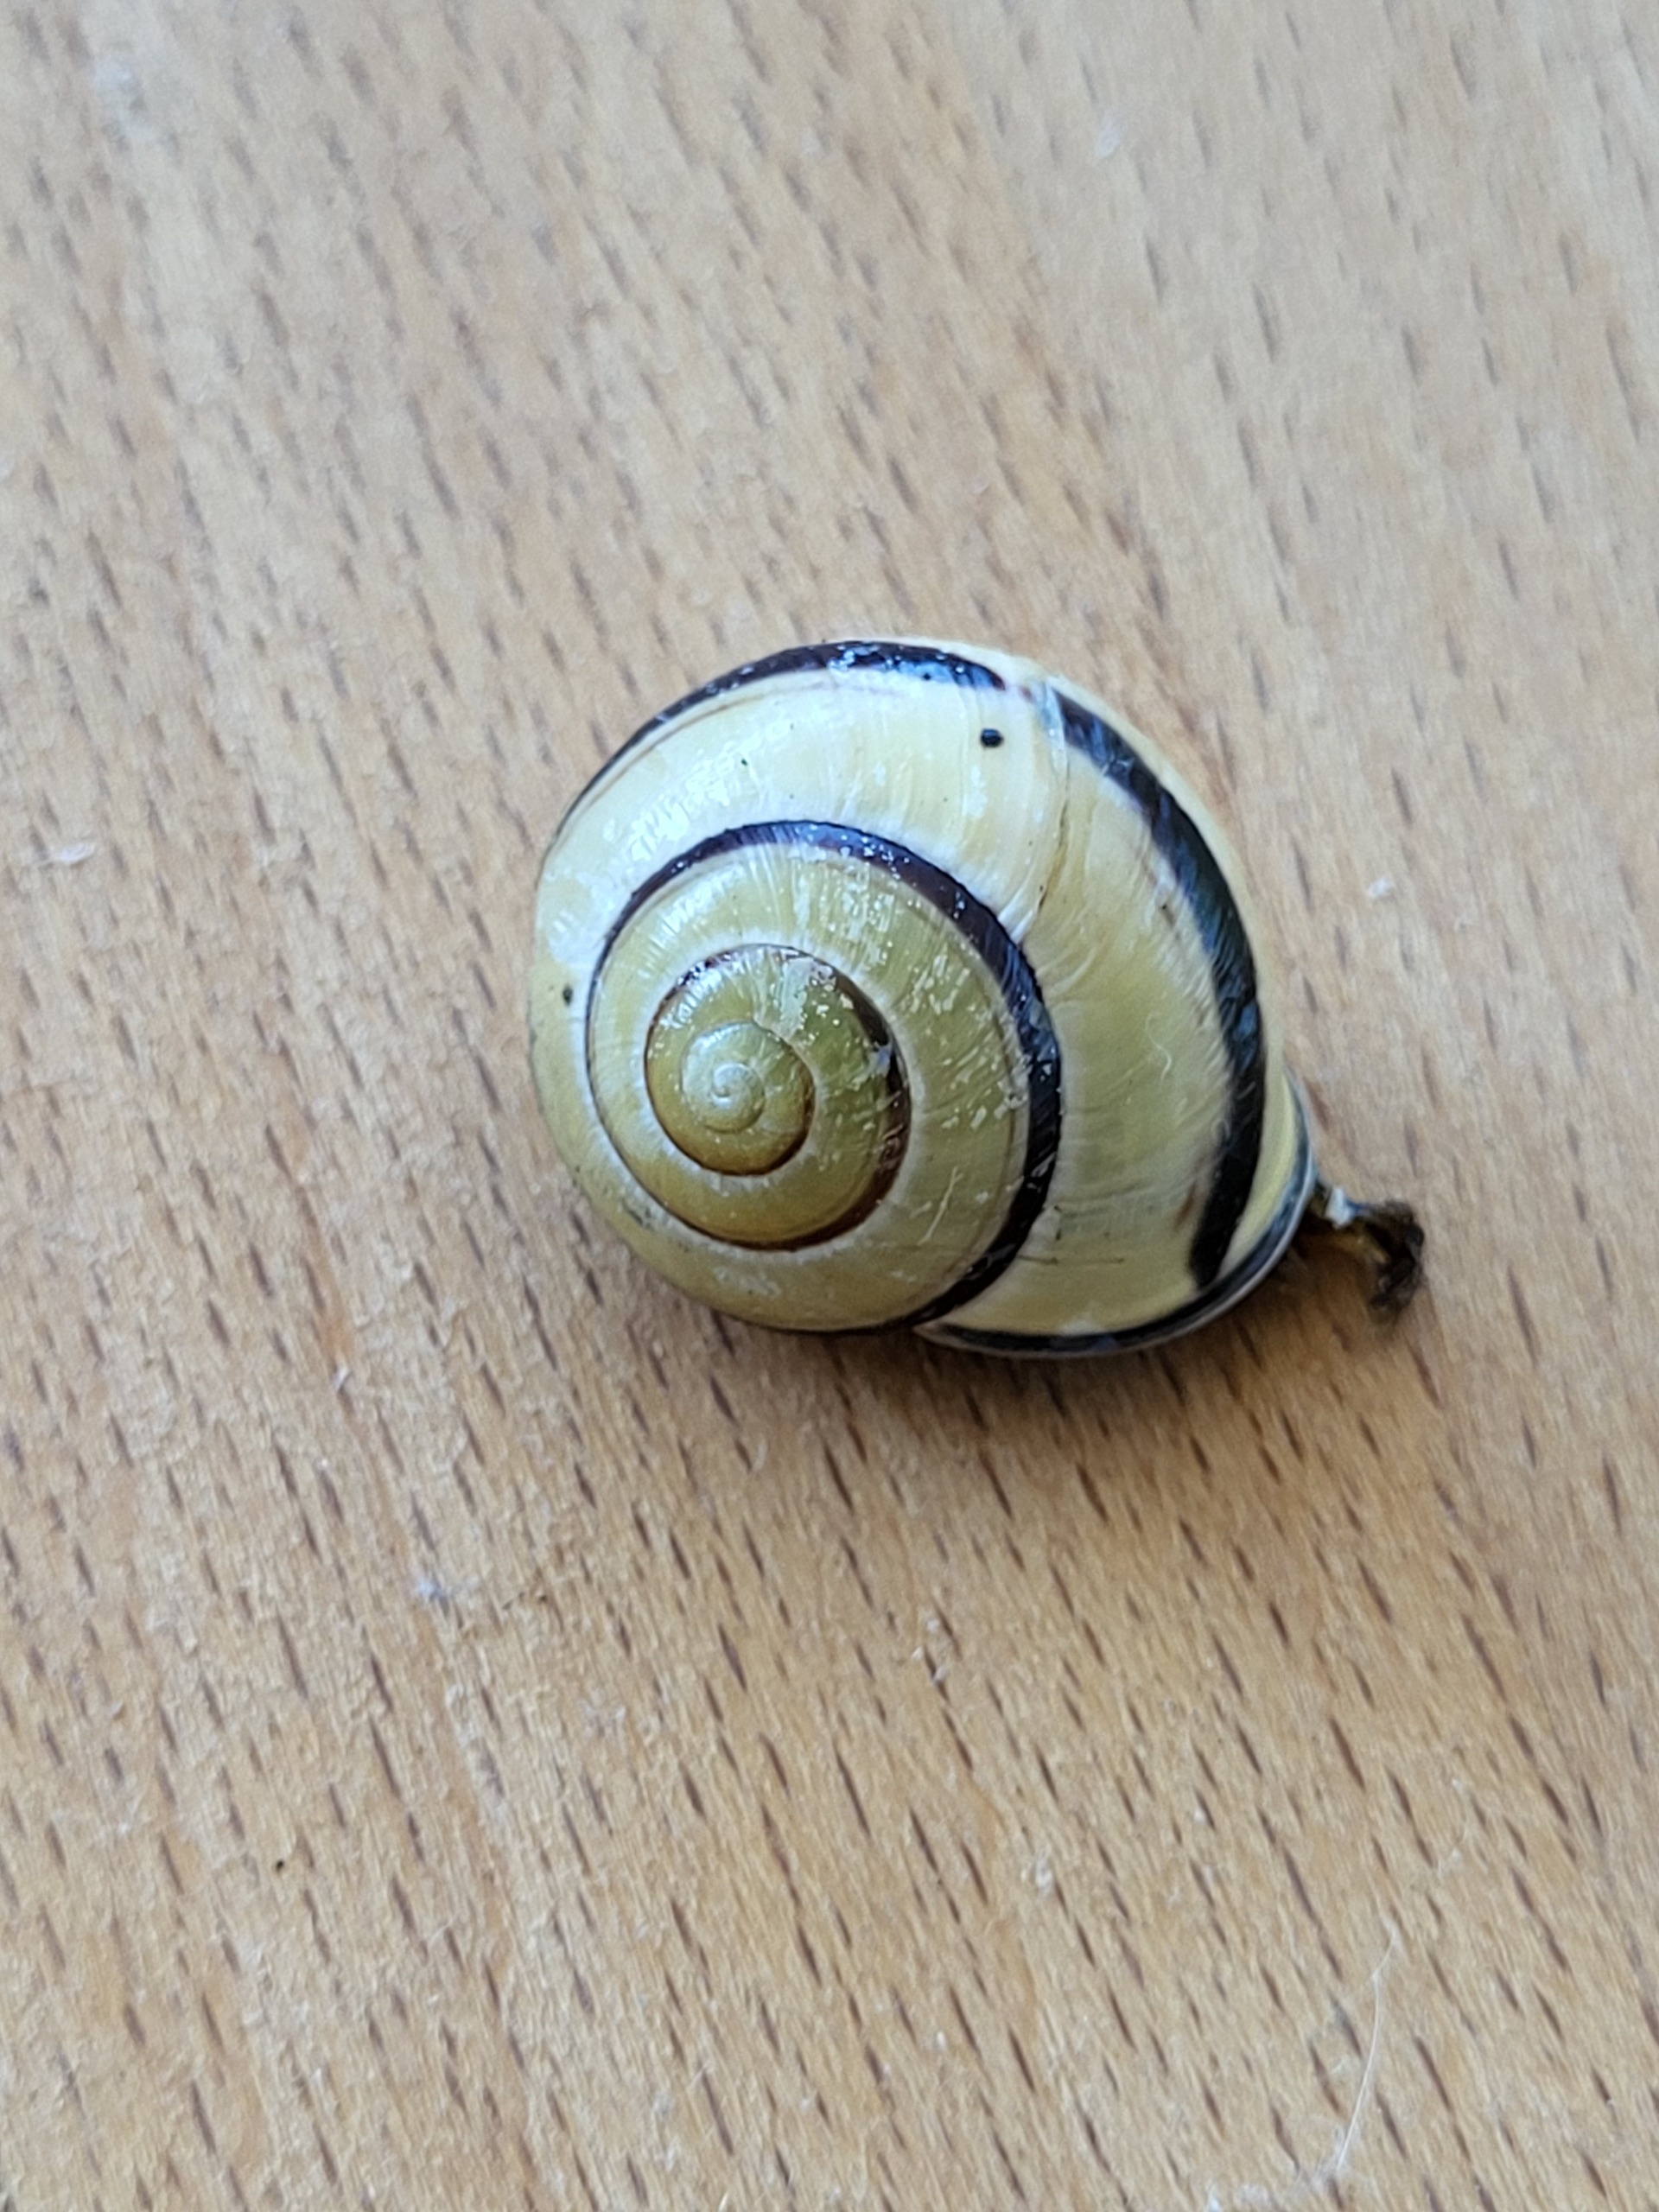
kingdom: Animalia
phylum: Mollusca
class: Gastropoda
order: Stylommatophora
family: Helicidae
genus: Cepaea
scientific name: Cepaea nemoralis
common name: Lundsnegl
